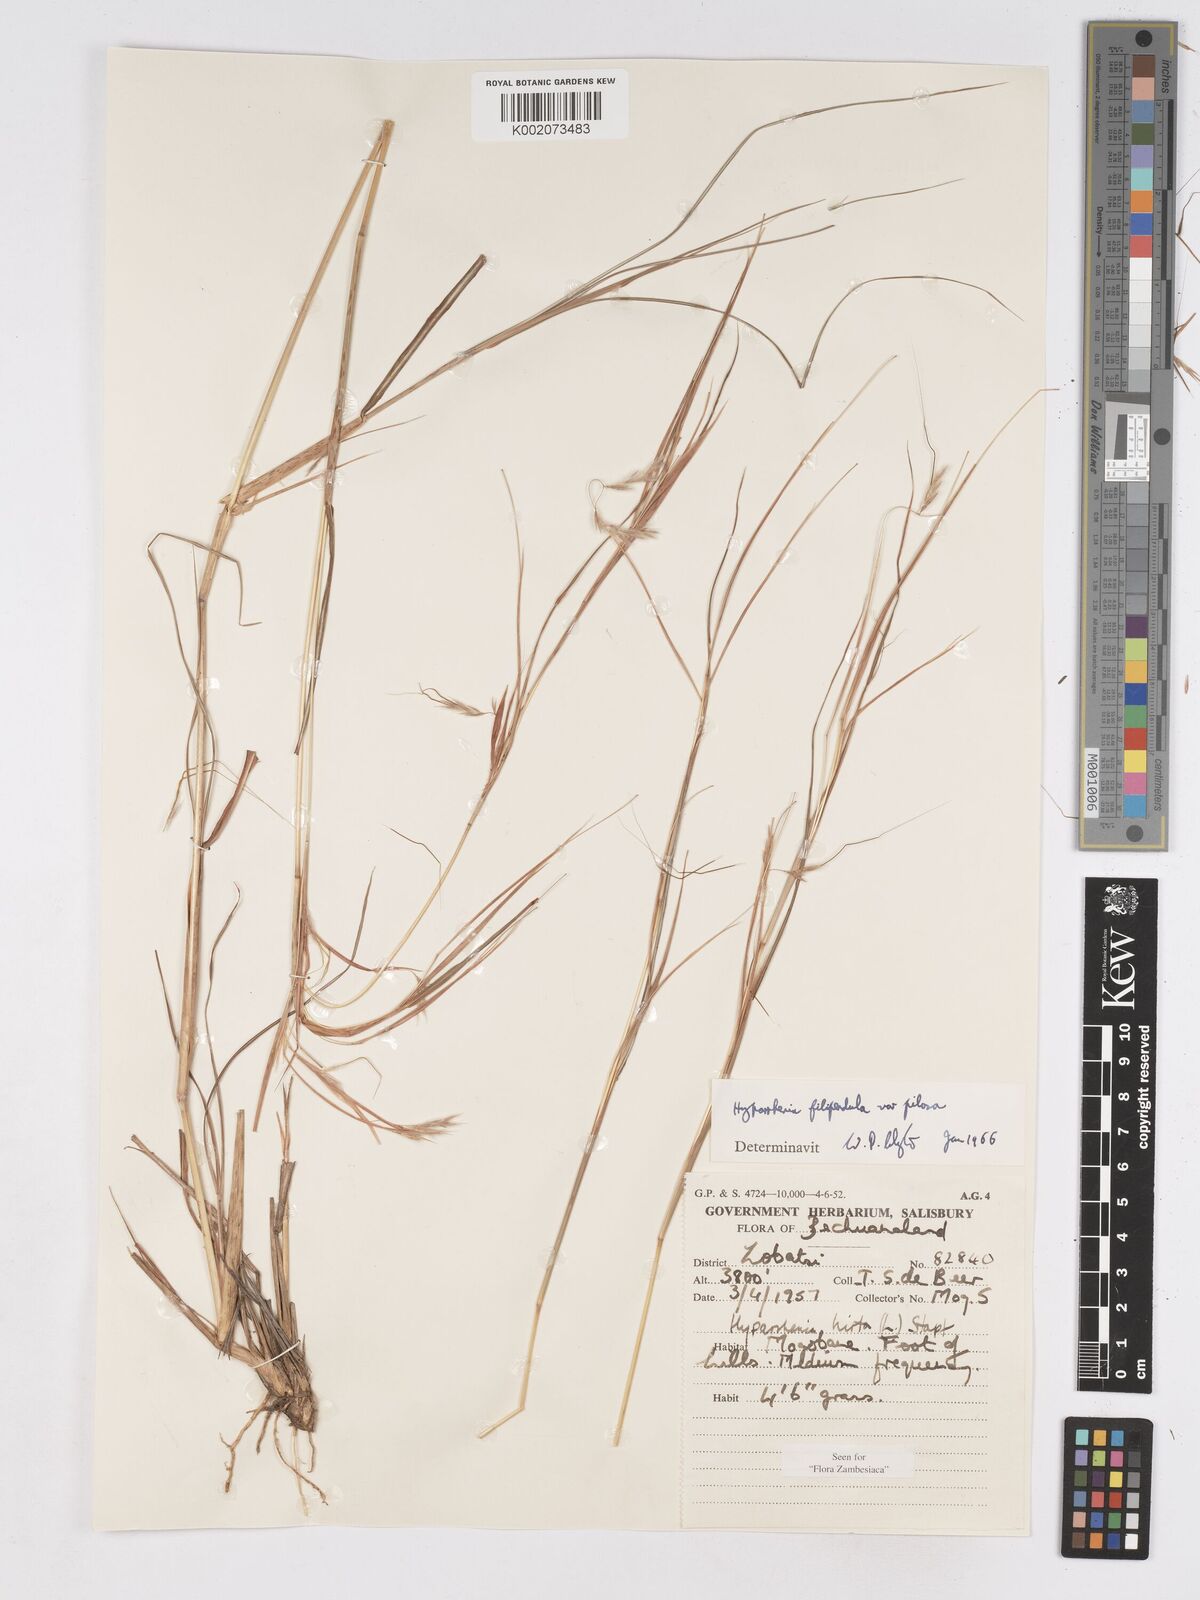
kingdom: Plantae
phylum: Tracheophyta
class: Liliopsida
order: Poales
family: Poaceae
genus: Hyparrhenia
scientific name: Hyparrhenia filipendula
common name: Tambookie grass
